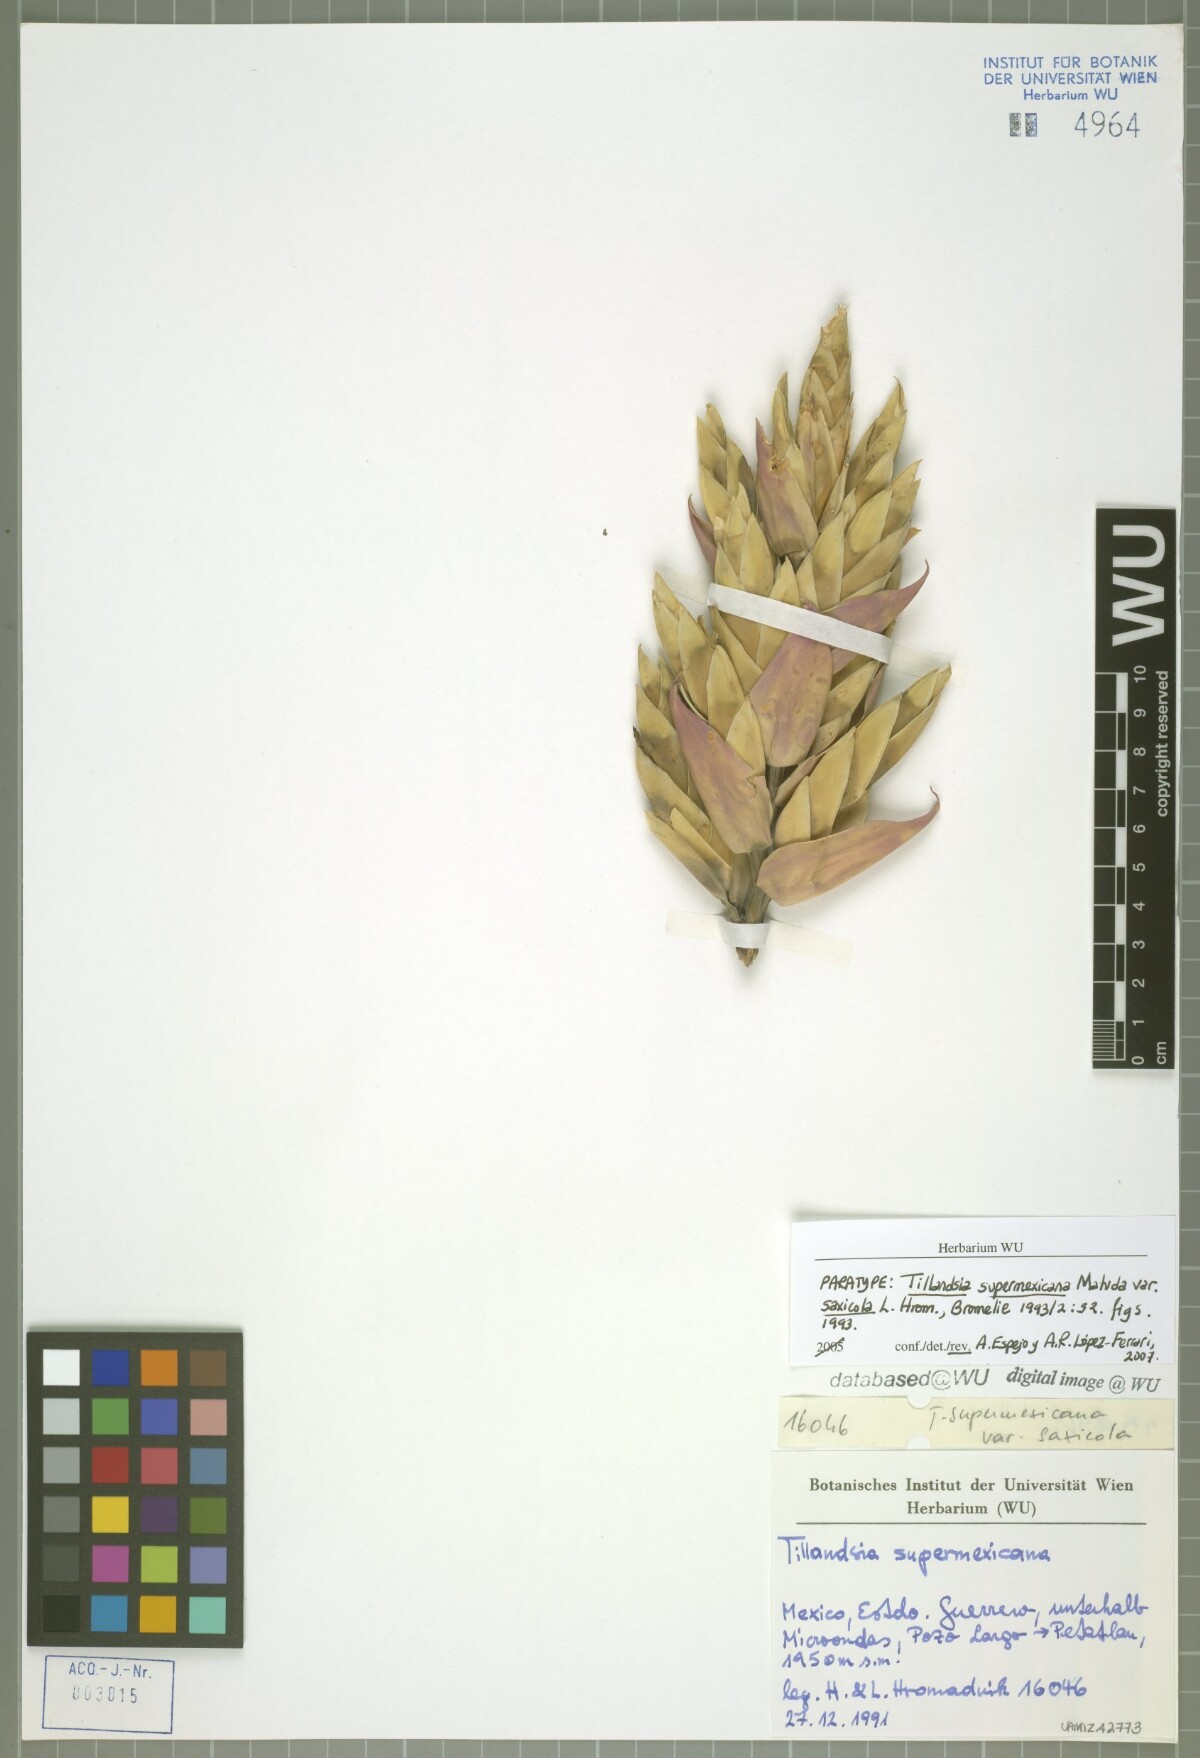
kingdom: Plantae
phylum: Tracheophyta
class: Liliopsida
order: Poales
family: Bromeliaceae
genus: Tillandsia
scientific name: Tillandsia supermexicana
